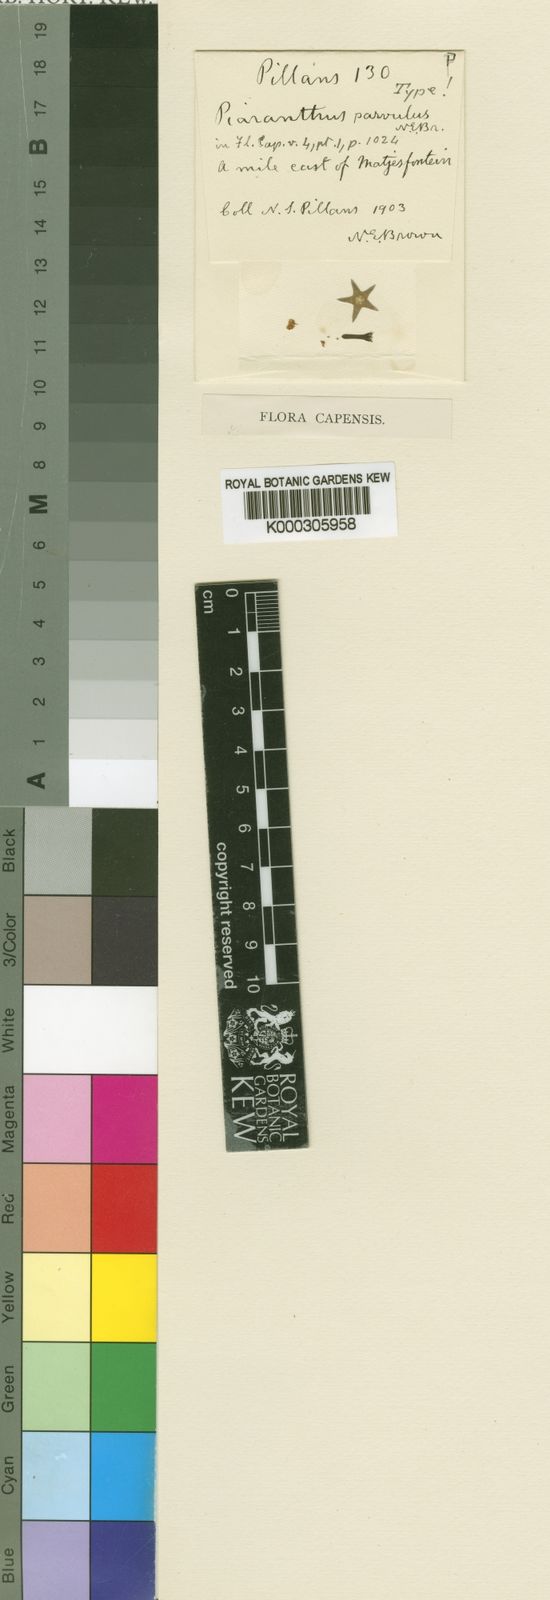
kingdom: Plantae
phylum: Tracheophyta
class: Magnoliopsida
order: Gentianales
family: Apocynaceae
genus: Ceropegia
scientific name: Ceropegia parvula
